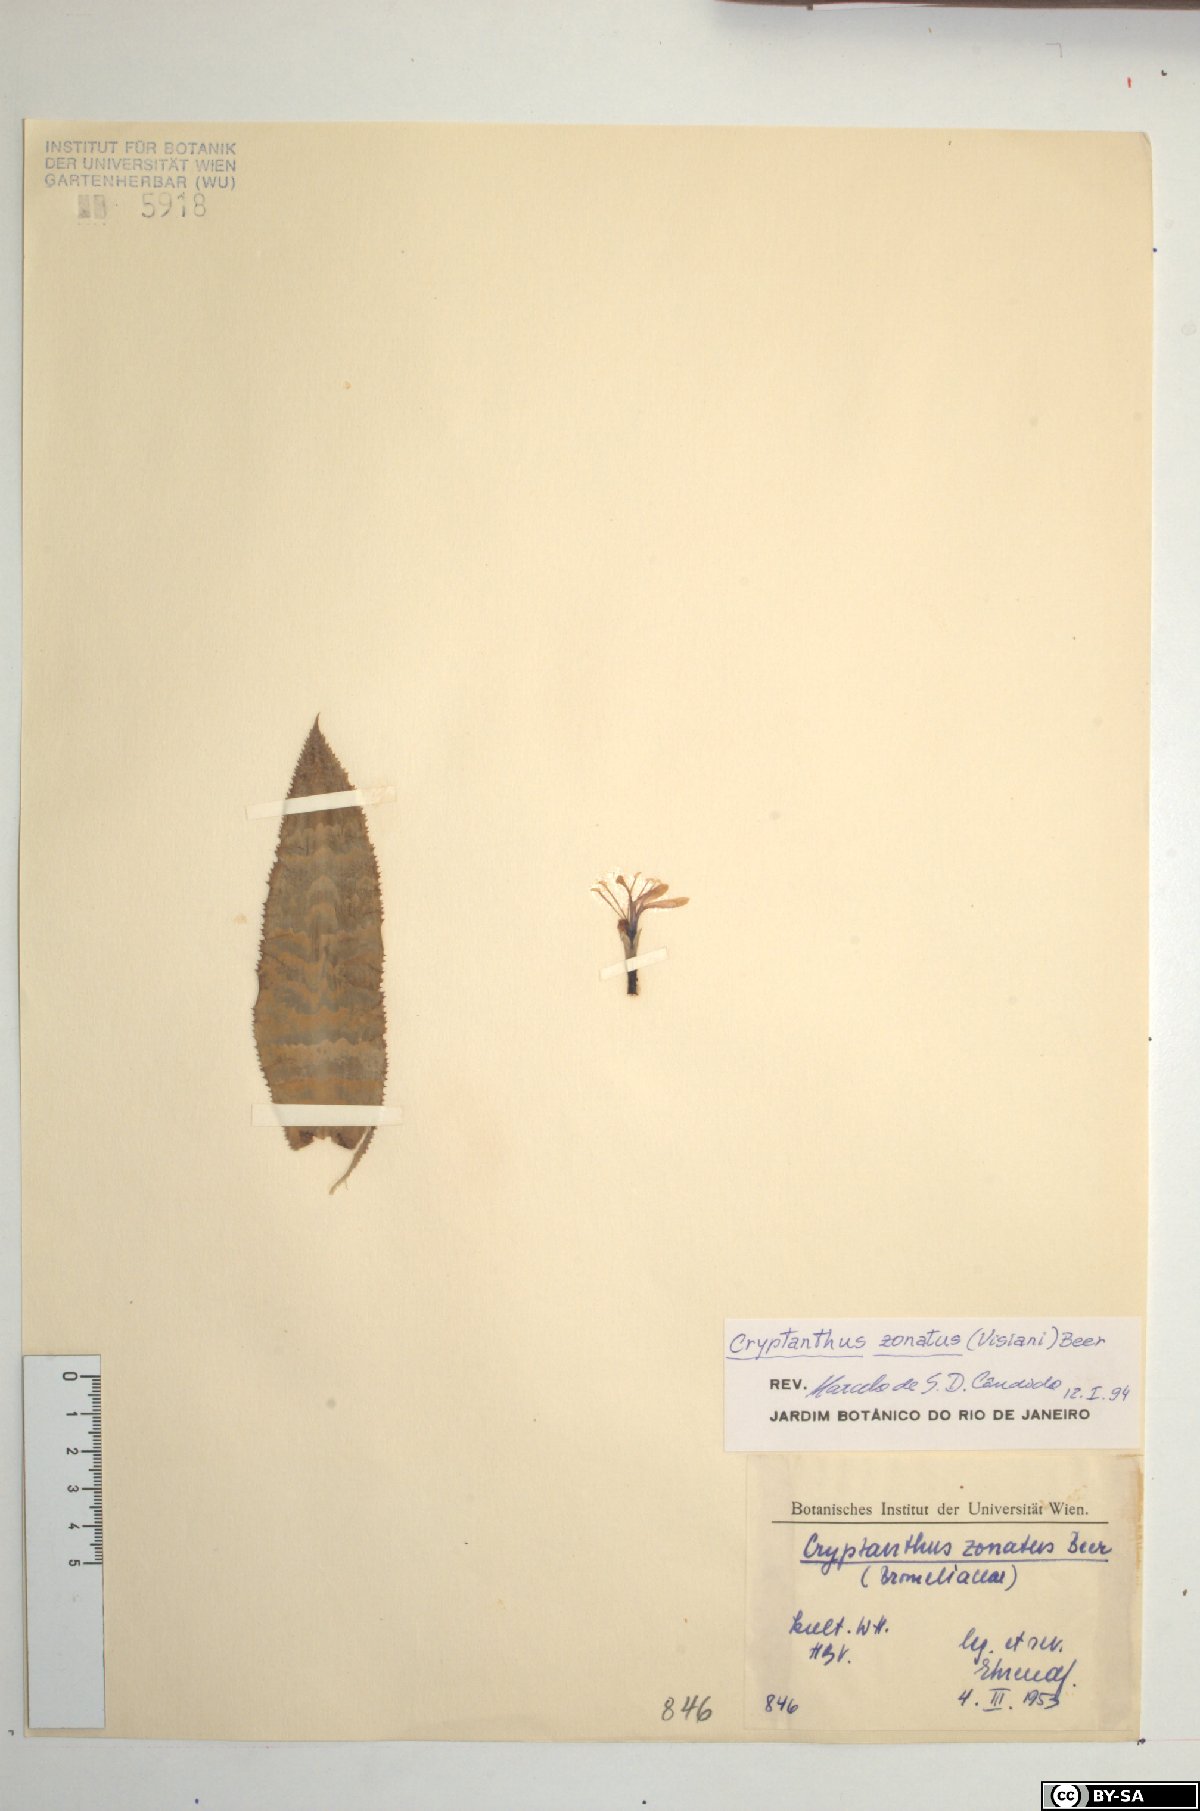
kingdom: Plantae
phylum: Tracheophyta
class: Liliopsida
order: Poales
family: Bromeliaceae
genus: Cryptanthus
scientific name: Cryptanthus zonatus
